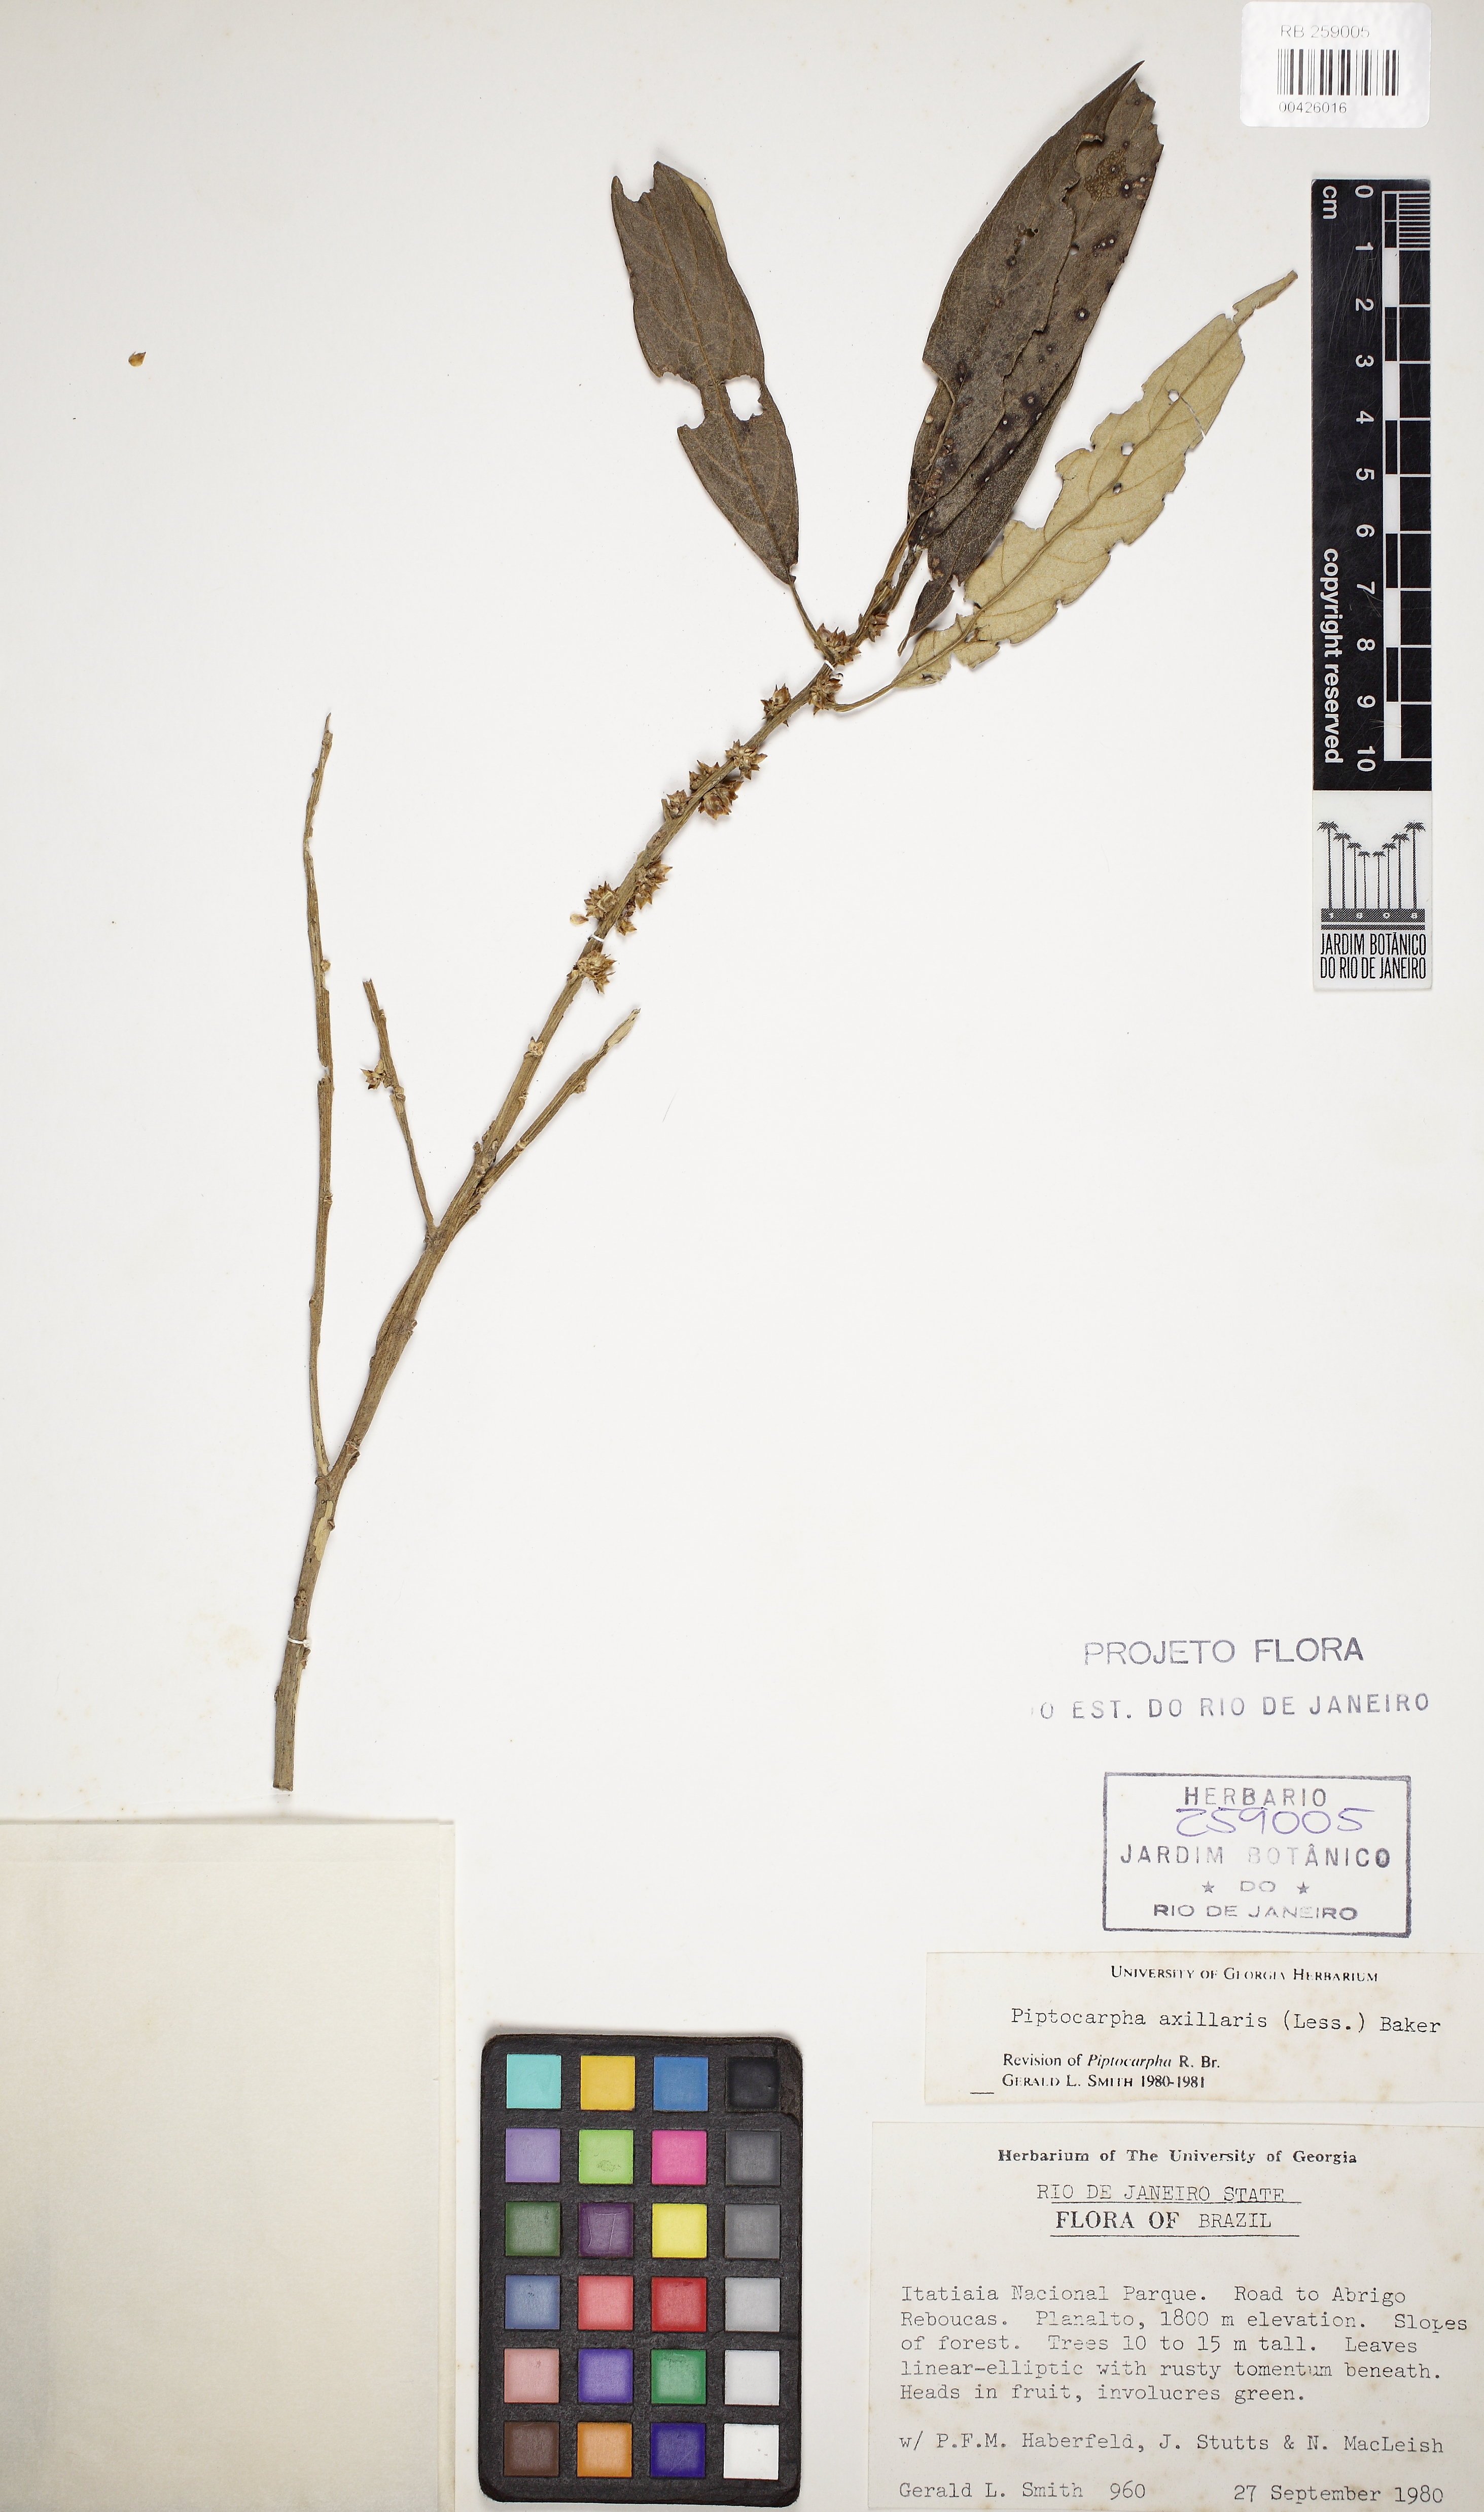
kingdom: Plantae
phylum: Tracheophyta
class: Magnoliopsida
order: Asterales
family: Asteraceae
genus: Piptocarpha
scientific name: Piptocarpha axillaris
